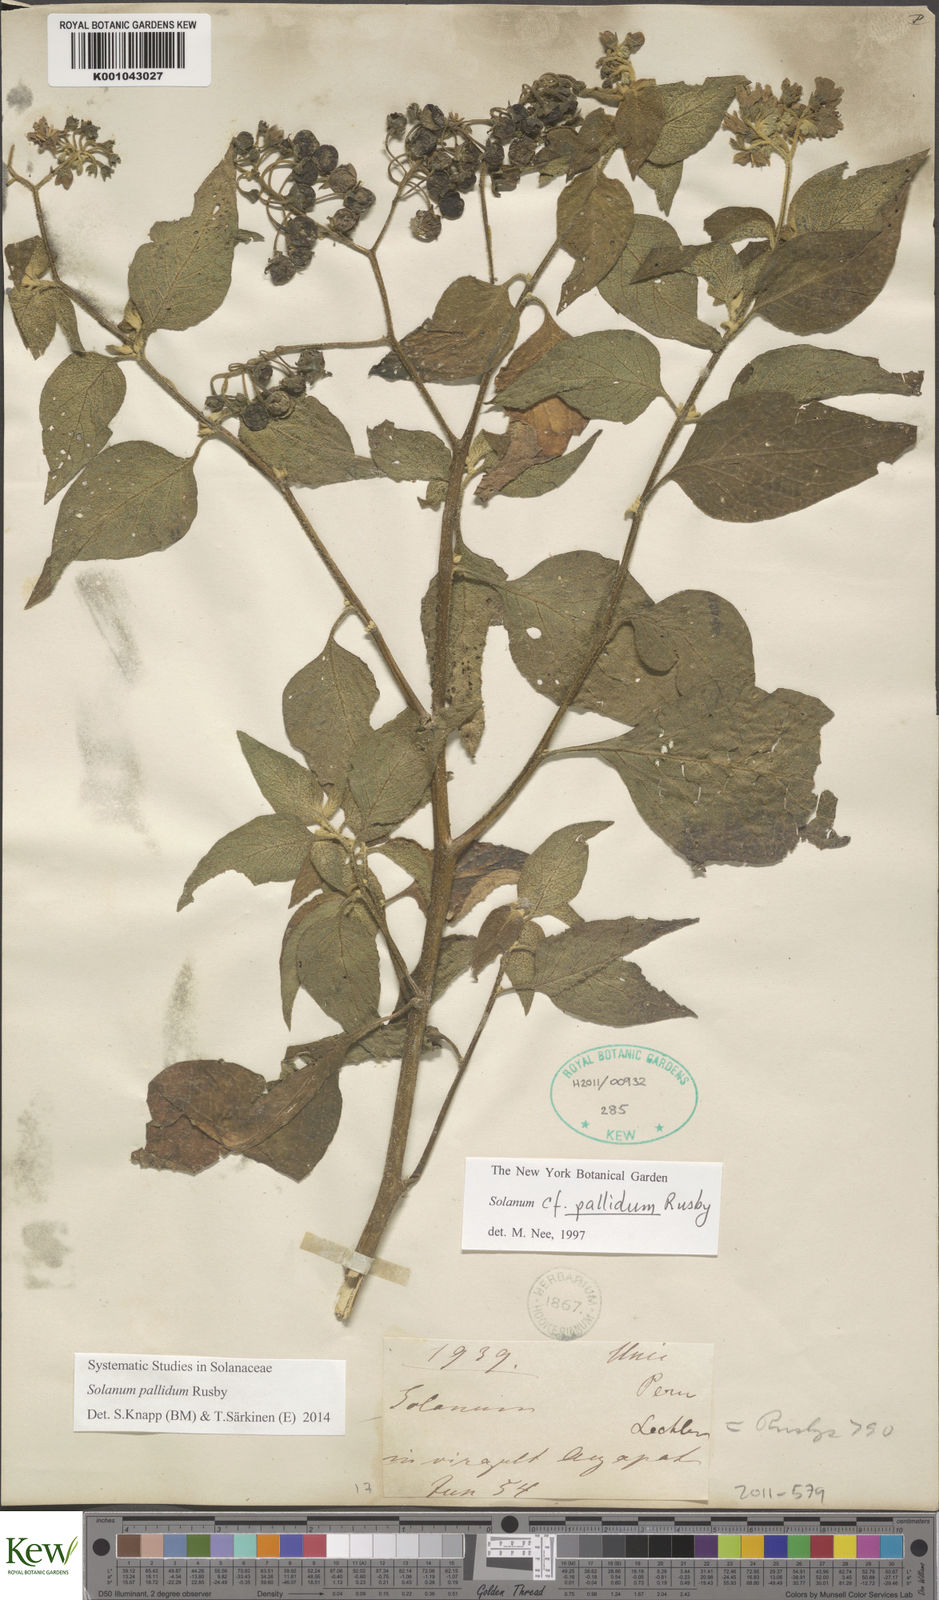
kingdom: Plantae
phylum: Tracheophyta
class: Magnoliopsida
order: Solanales
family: Solanaceae
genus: Solanum
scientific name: Solanum pallidum
